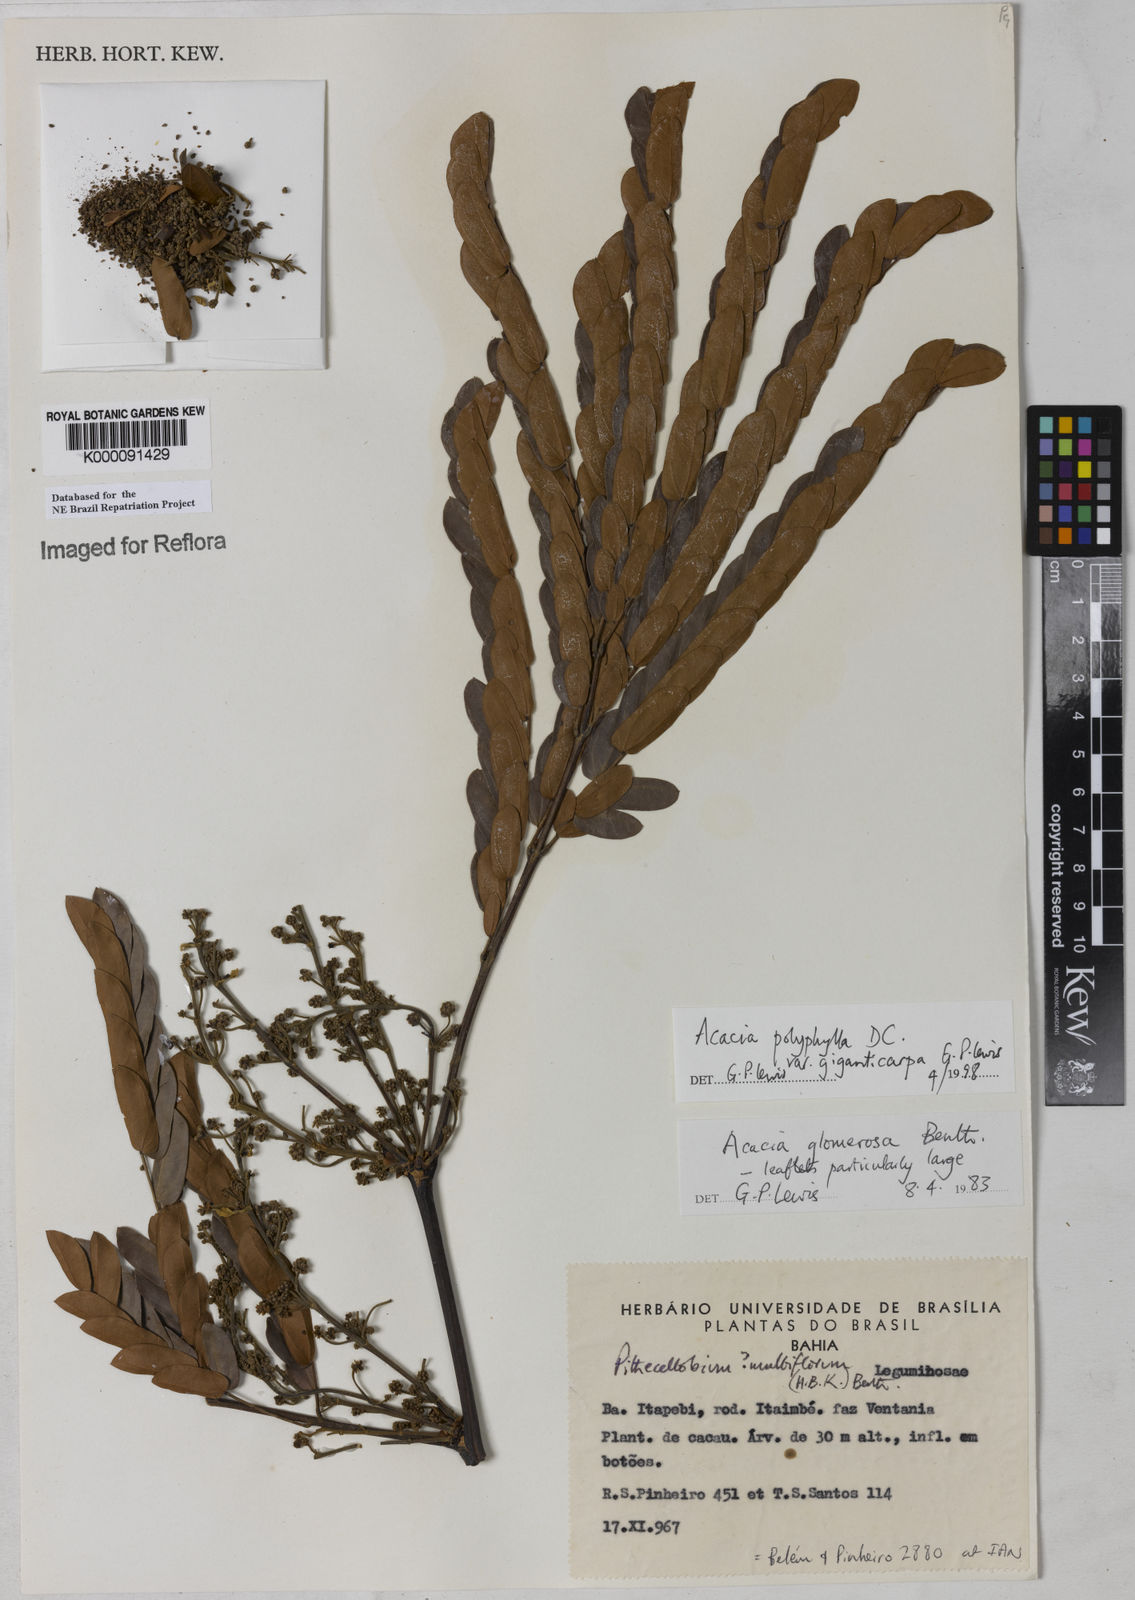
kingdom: Plantae
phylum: Tracheophyta
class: Magnoliopsida
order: Fabales
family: Fabaceae
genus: Senegalia
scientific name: Senegalia giganticarpa
